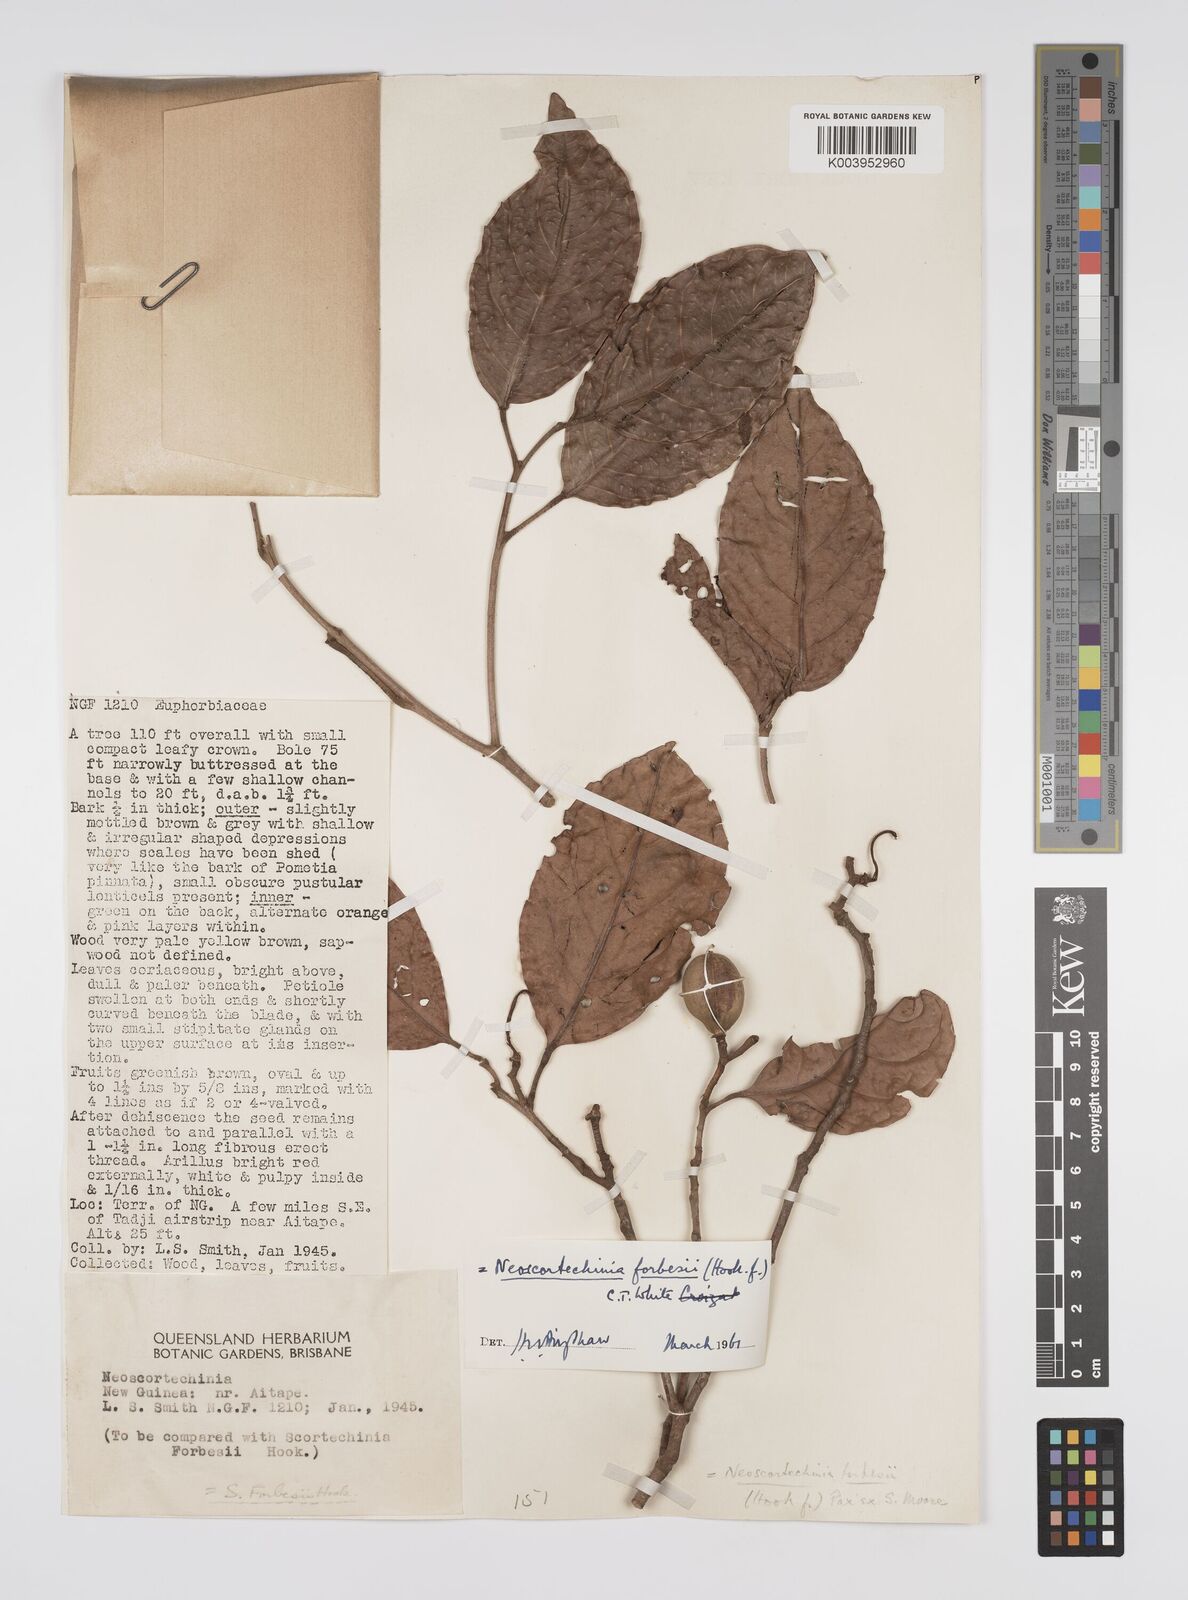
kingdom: Plantae
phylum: Tracheophyta
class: Magnoliopsida
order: Malpighiales
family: Euphorbiaceae
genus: Neoscortechinia
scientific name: Neoscortechinia forbesii
